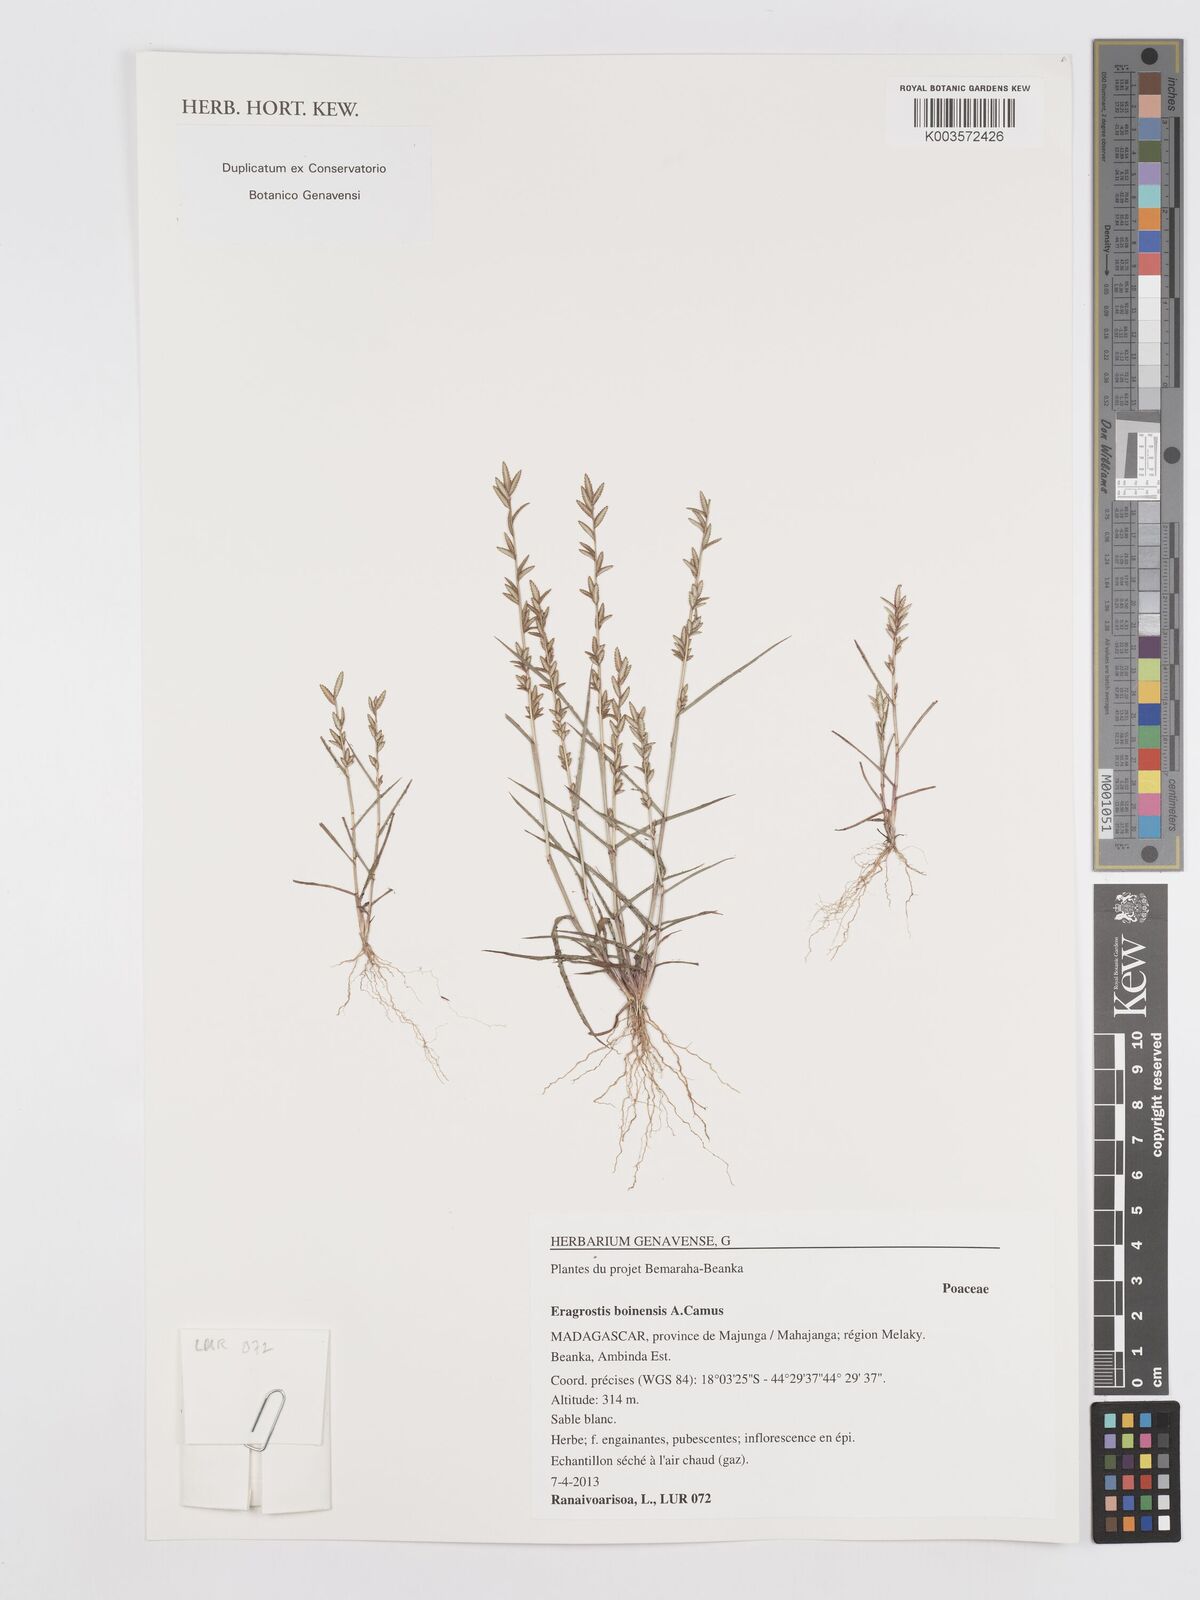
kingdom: Plantae
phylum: Tracheophyta
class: Liliopsida
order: Poales
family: Poaceae
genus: Eragrostis
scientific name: Eragrostis boinensis
